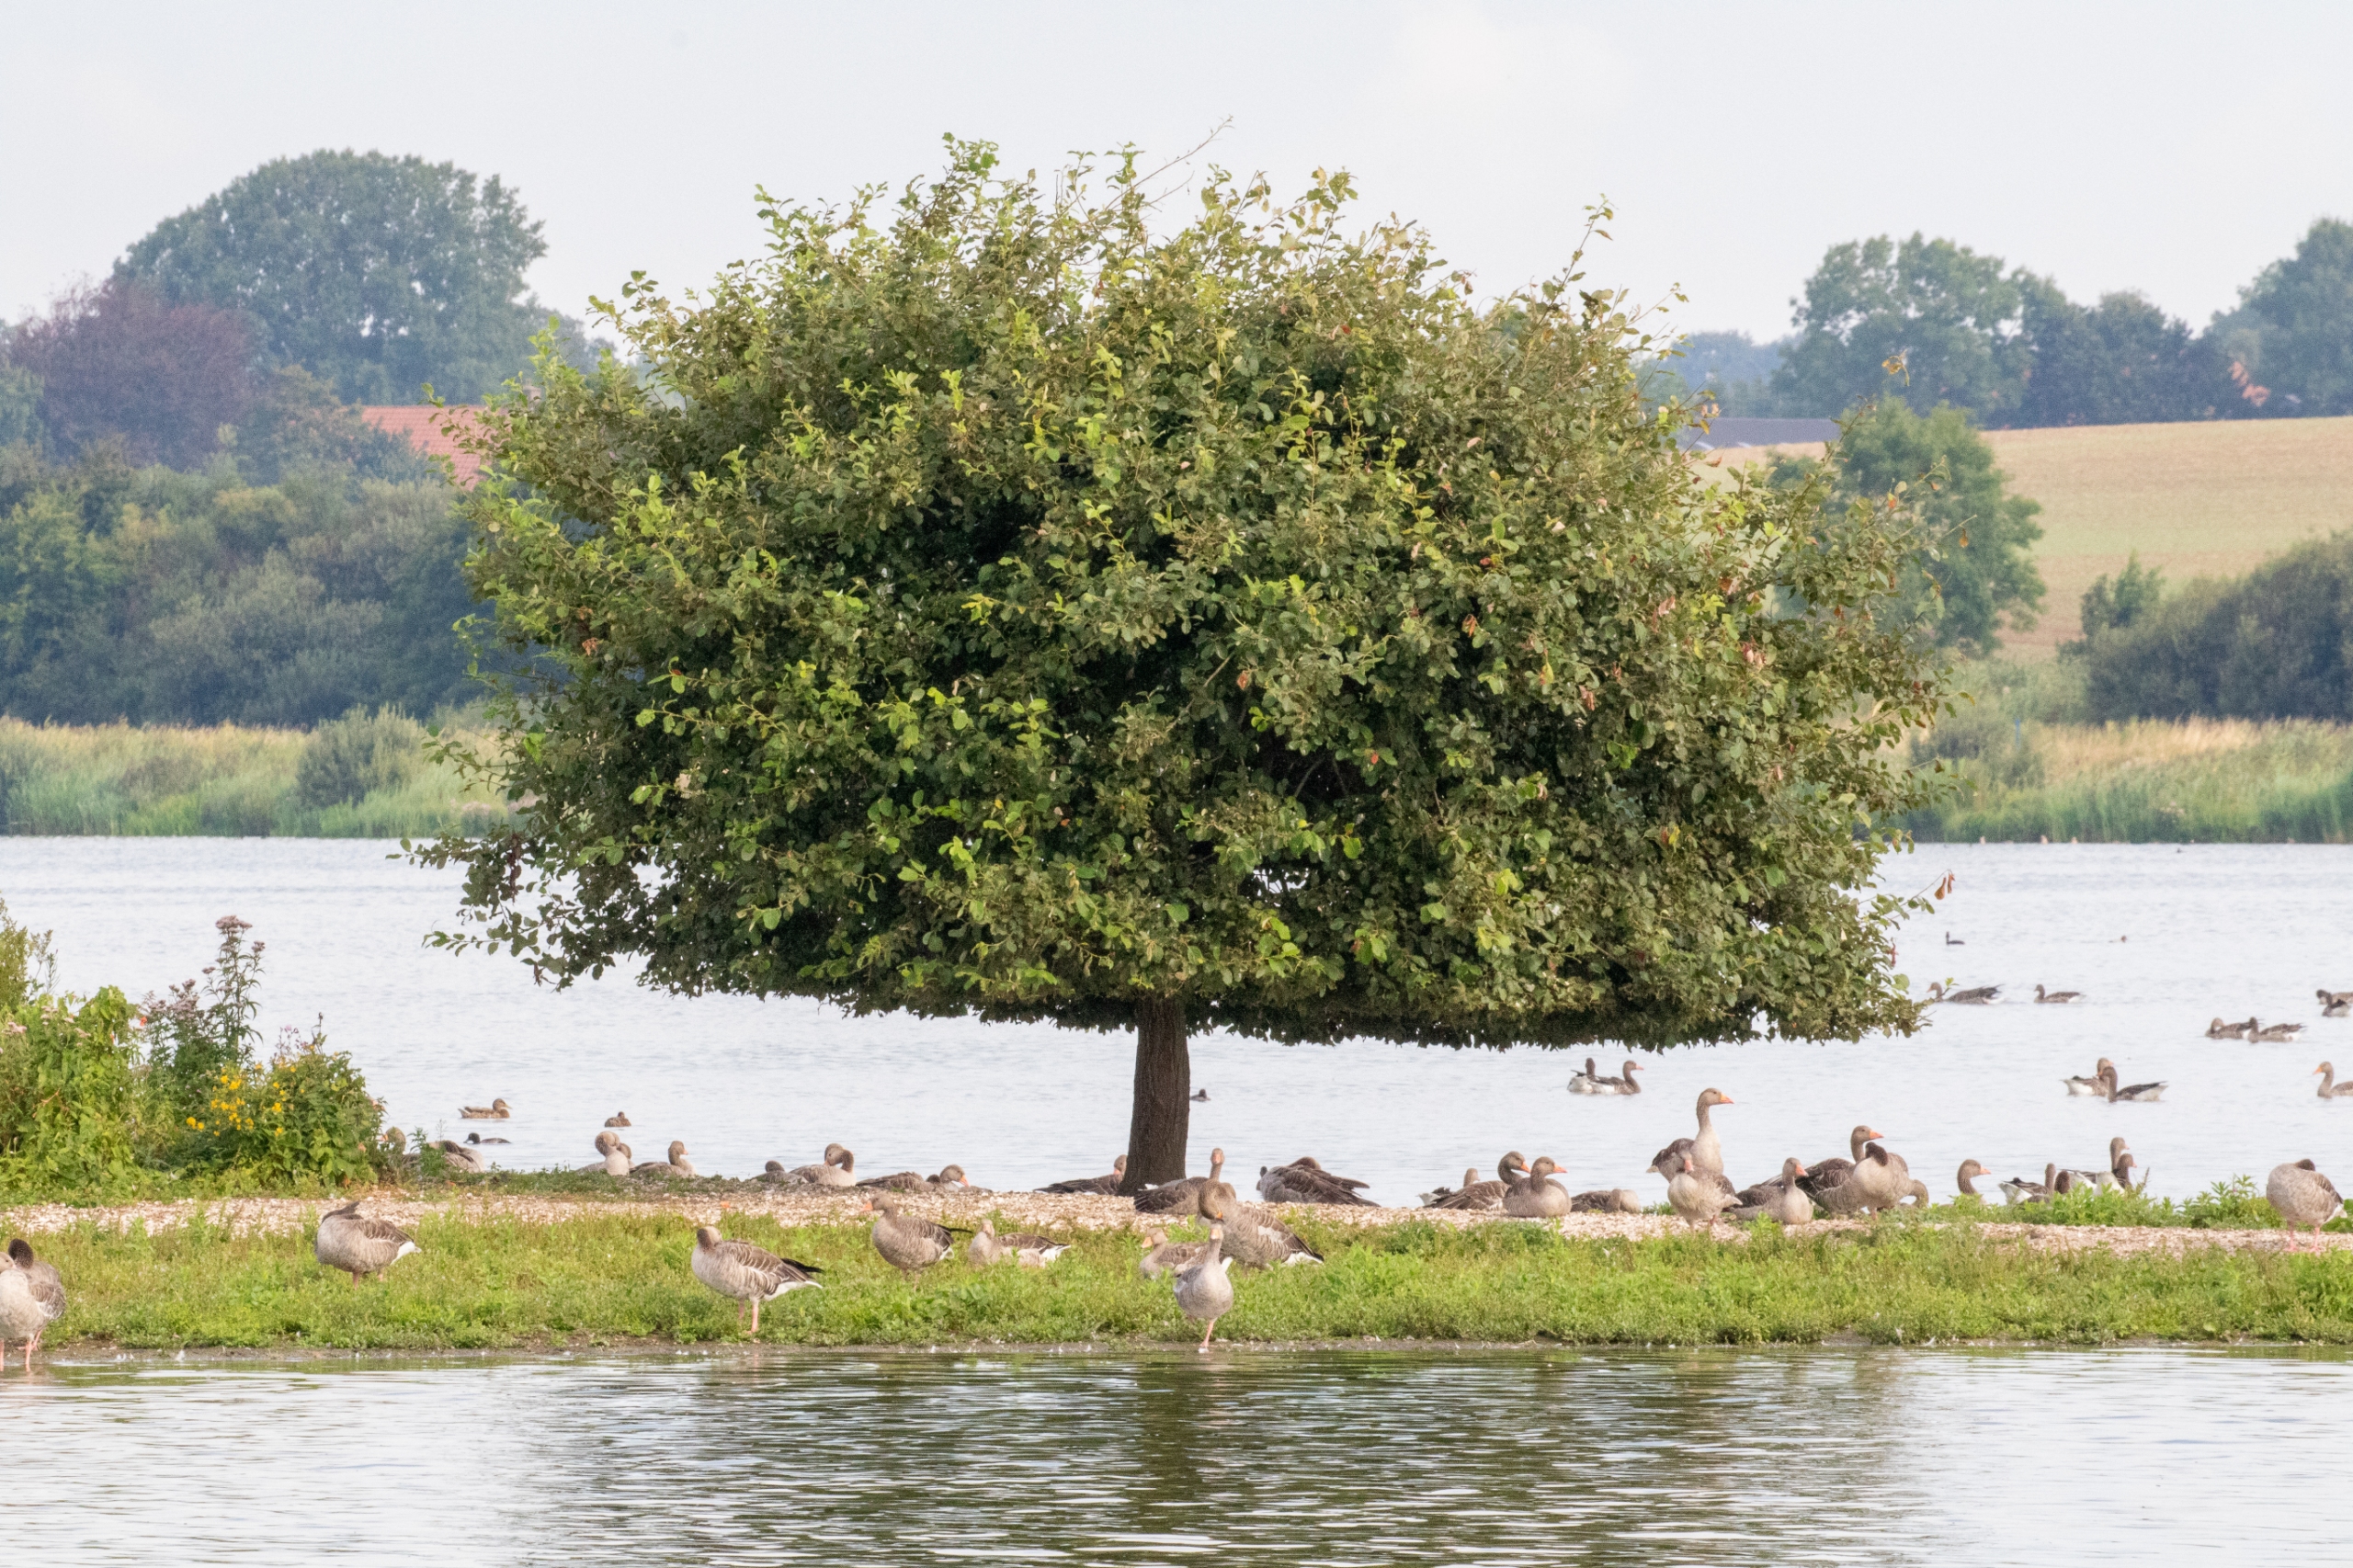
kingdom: Animalia
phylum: Chordata
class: Aves
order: Anseriformes
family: Anatidae
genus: Anser
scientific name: Anser anser
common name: Grågås
